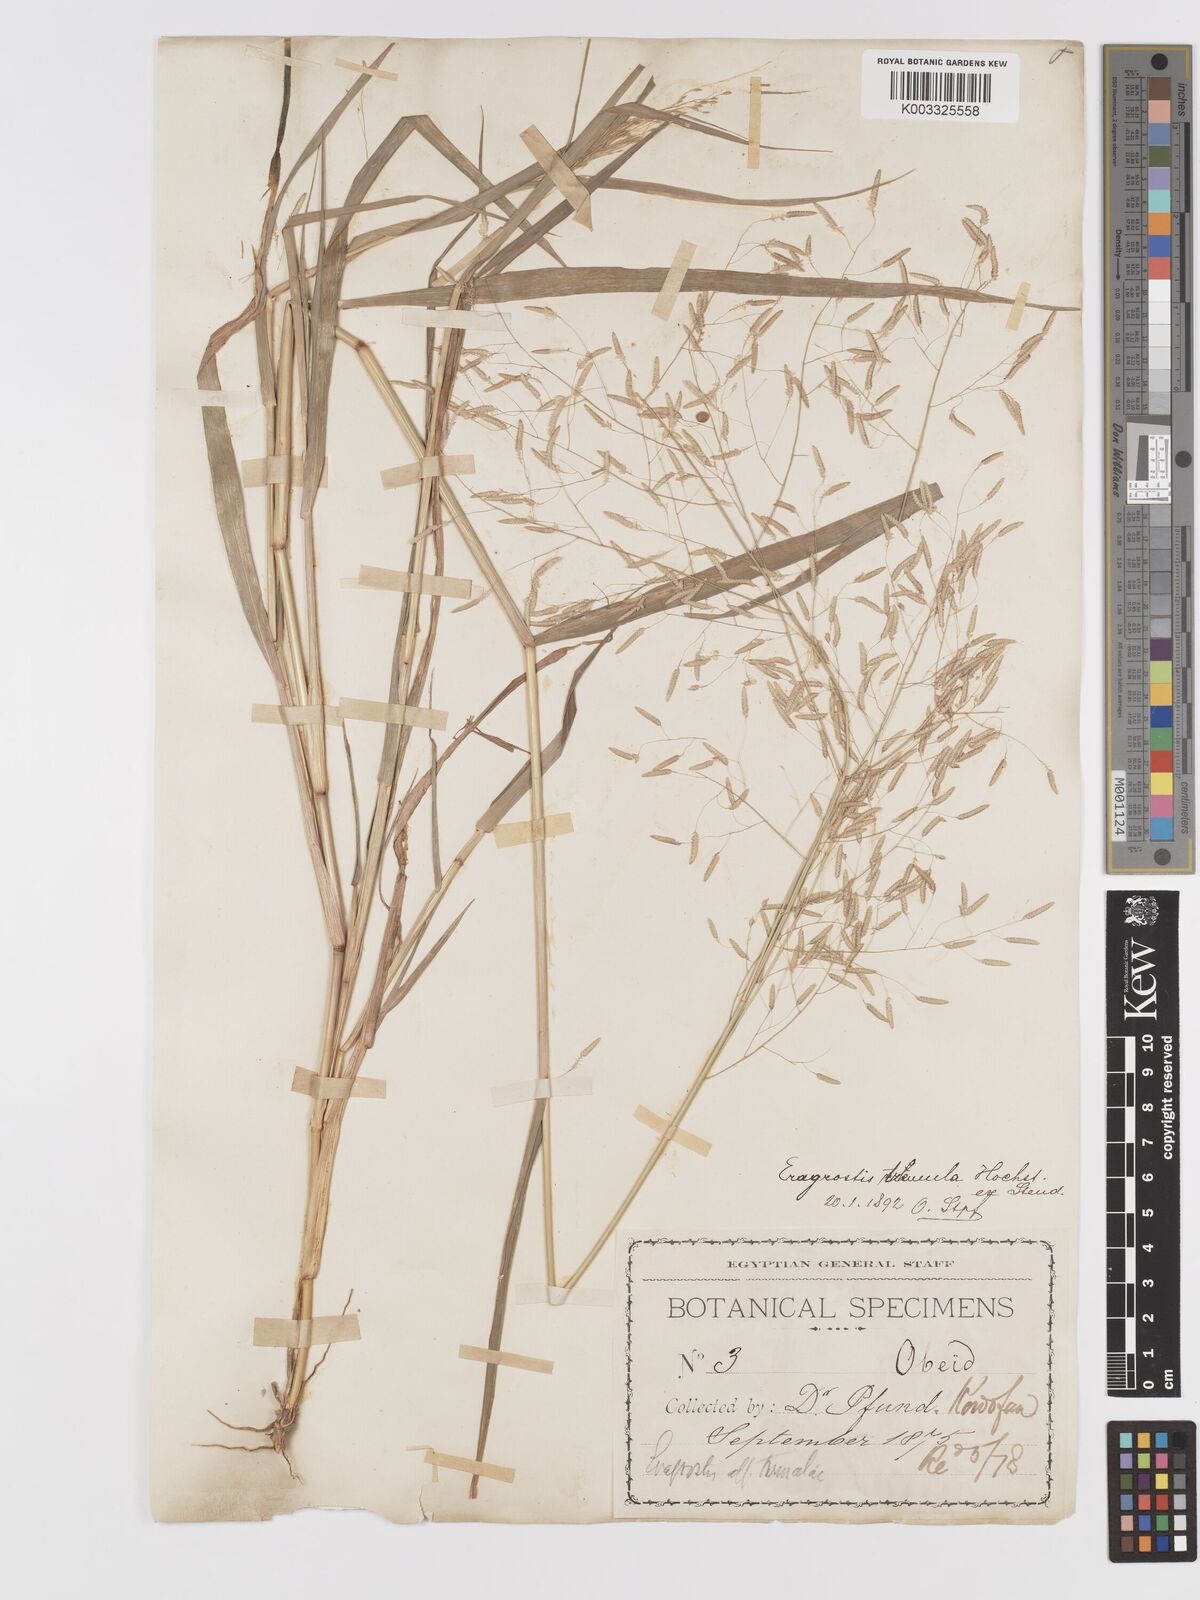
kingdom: Plantae
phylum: Tracheophyta
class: Liliopsida
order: Poales
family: Poaceae
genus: Eragrostis
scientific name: Eragrostis tremula
